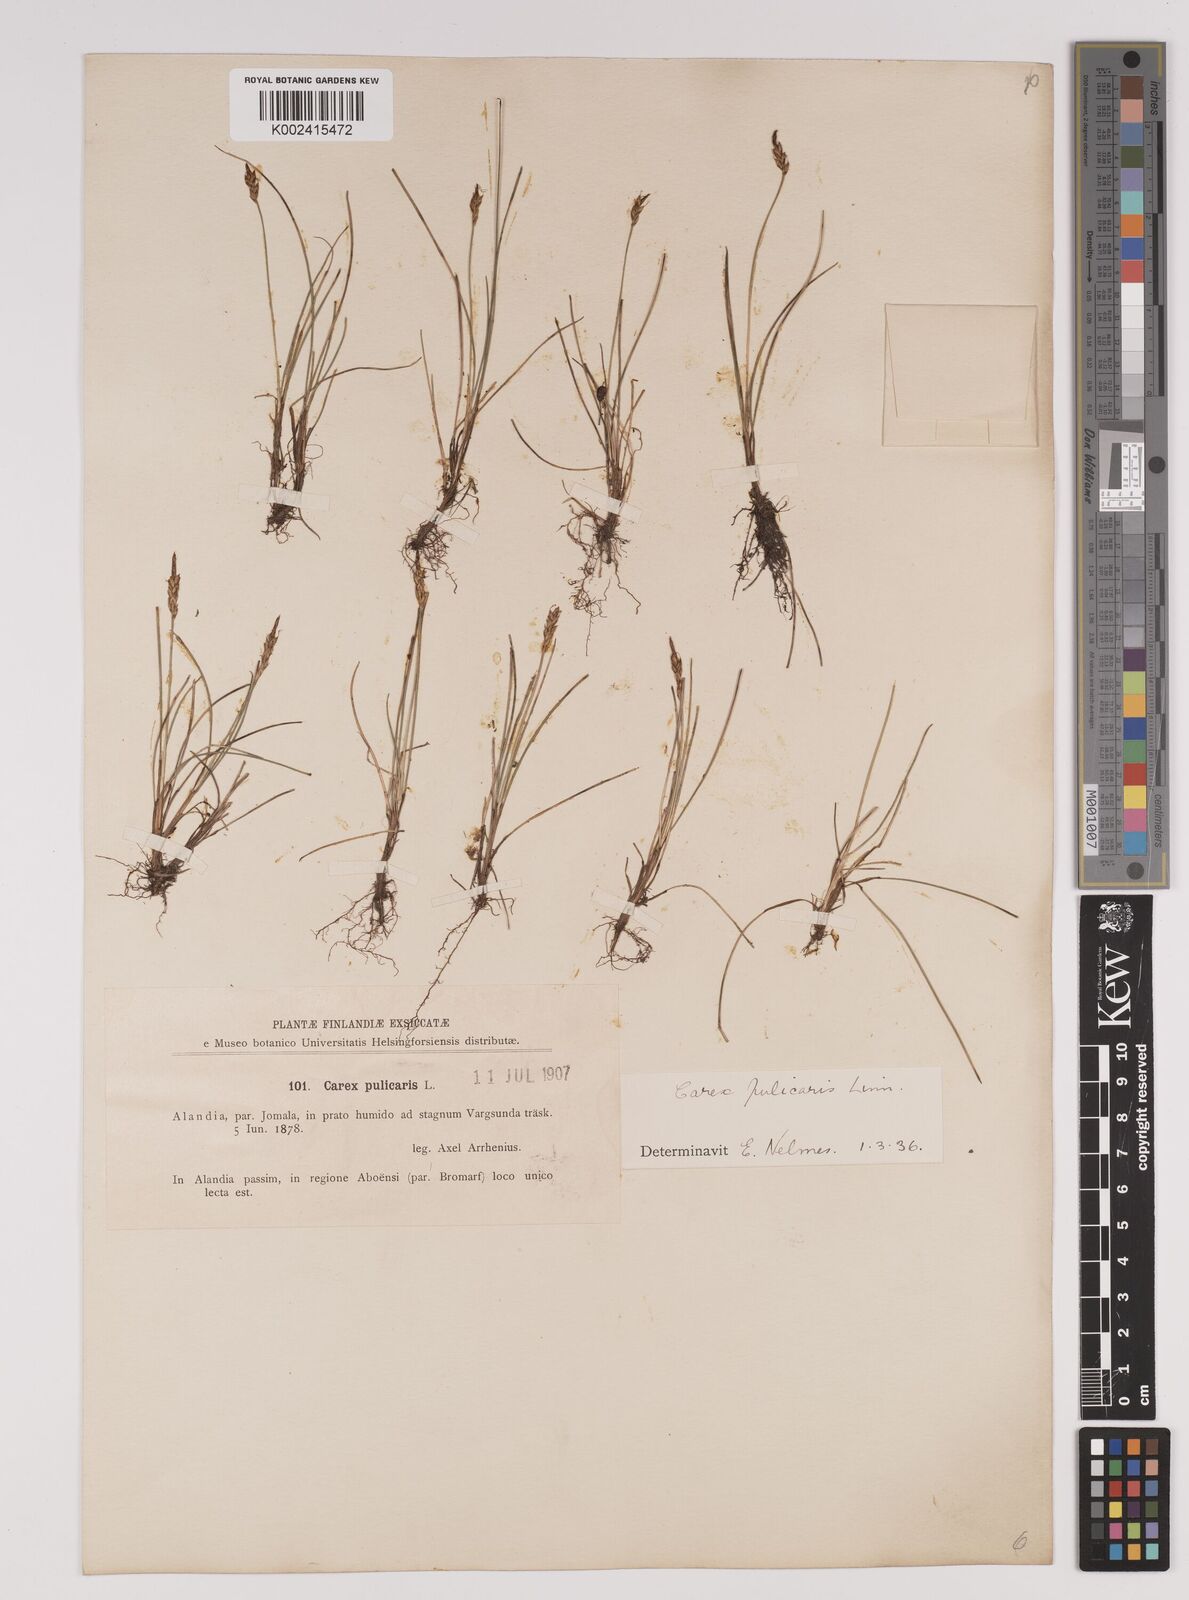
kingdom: Plantae
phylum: Tracheophyta
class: Liliopsida
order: Poales
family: Cyperaceae
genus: Carex
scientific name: Carex pulicaris
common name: Flea sedge
